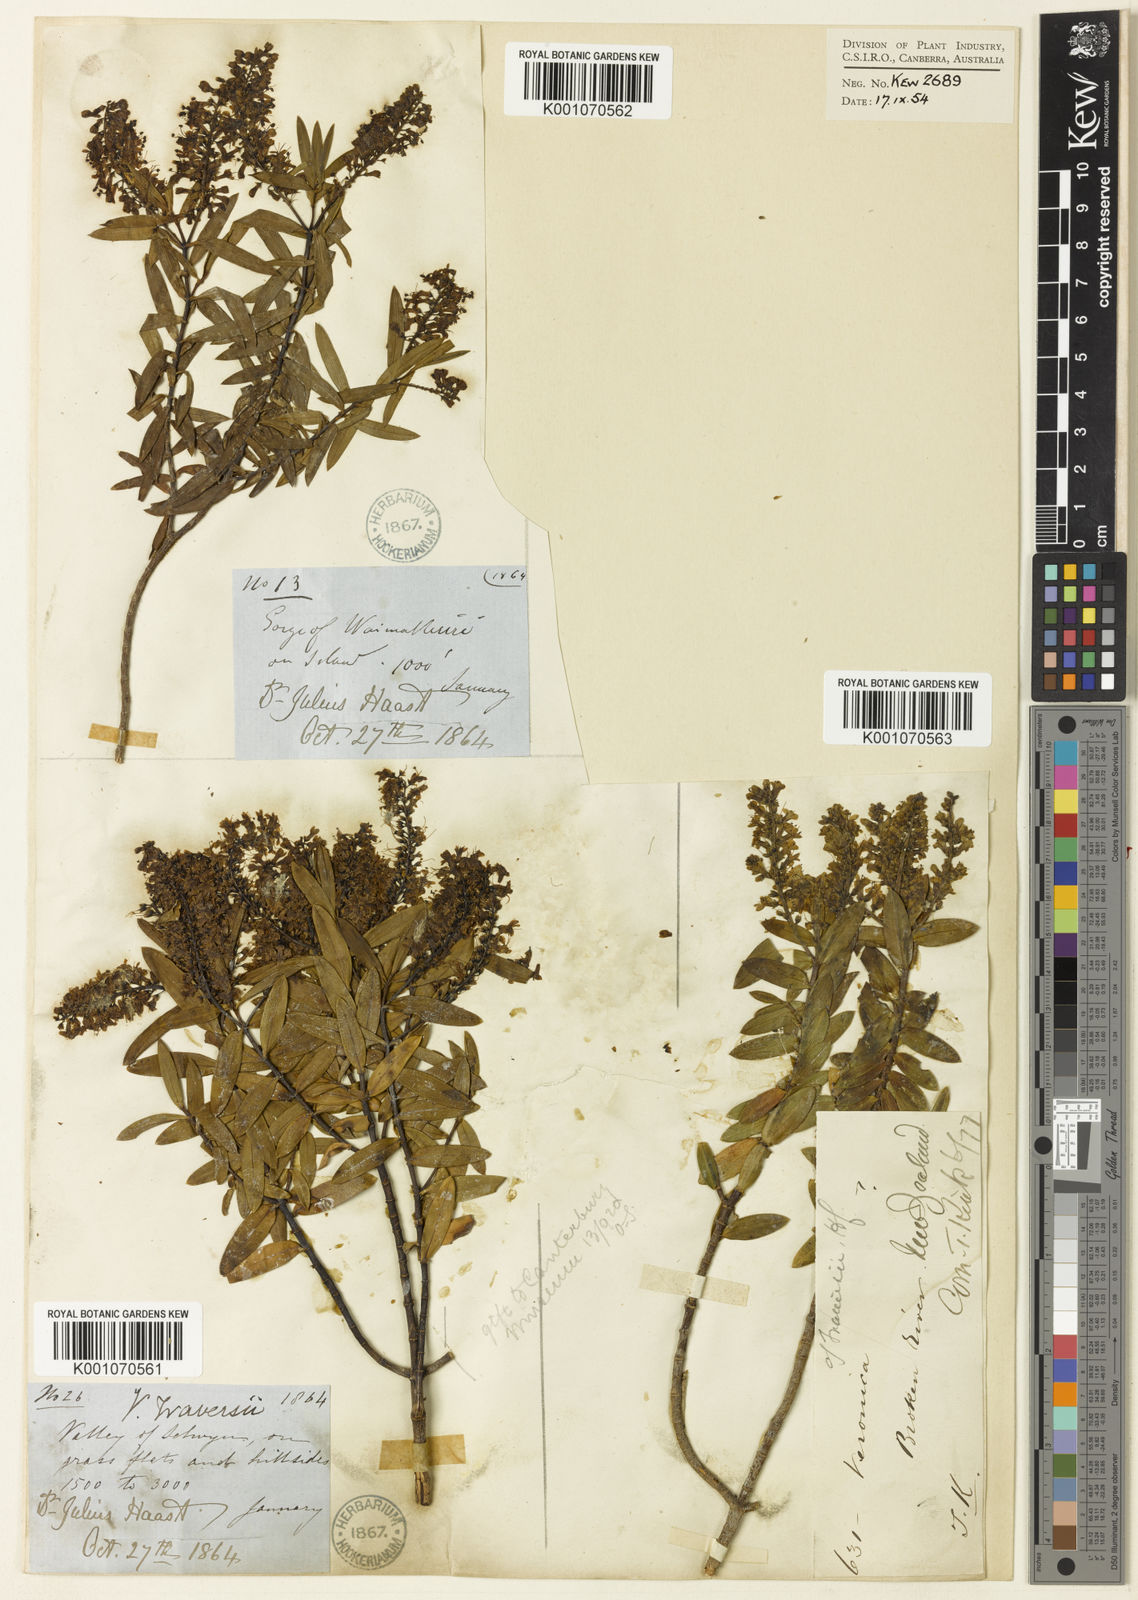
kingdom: Plantae
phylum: Tracheophyta
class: Magnoliopsida
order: Lamiales
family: Plantaginaceae
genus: Veronica
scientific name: Veronica traversii
